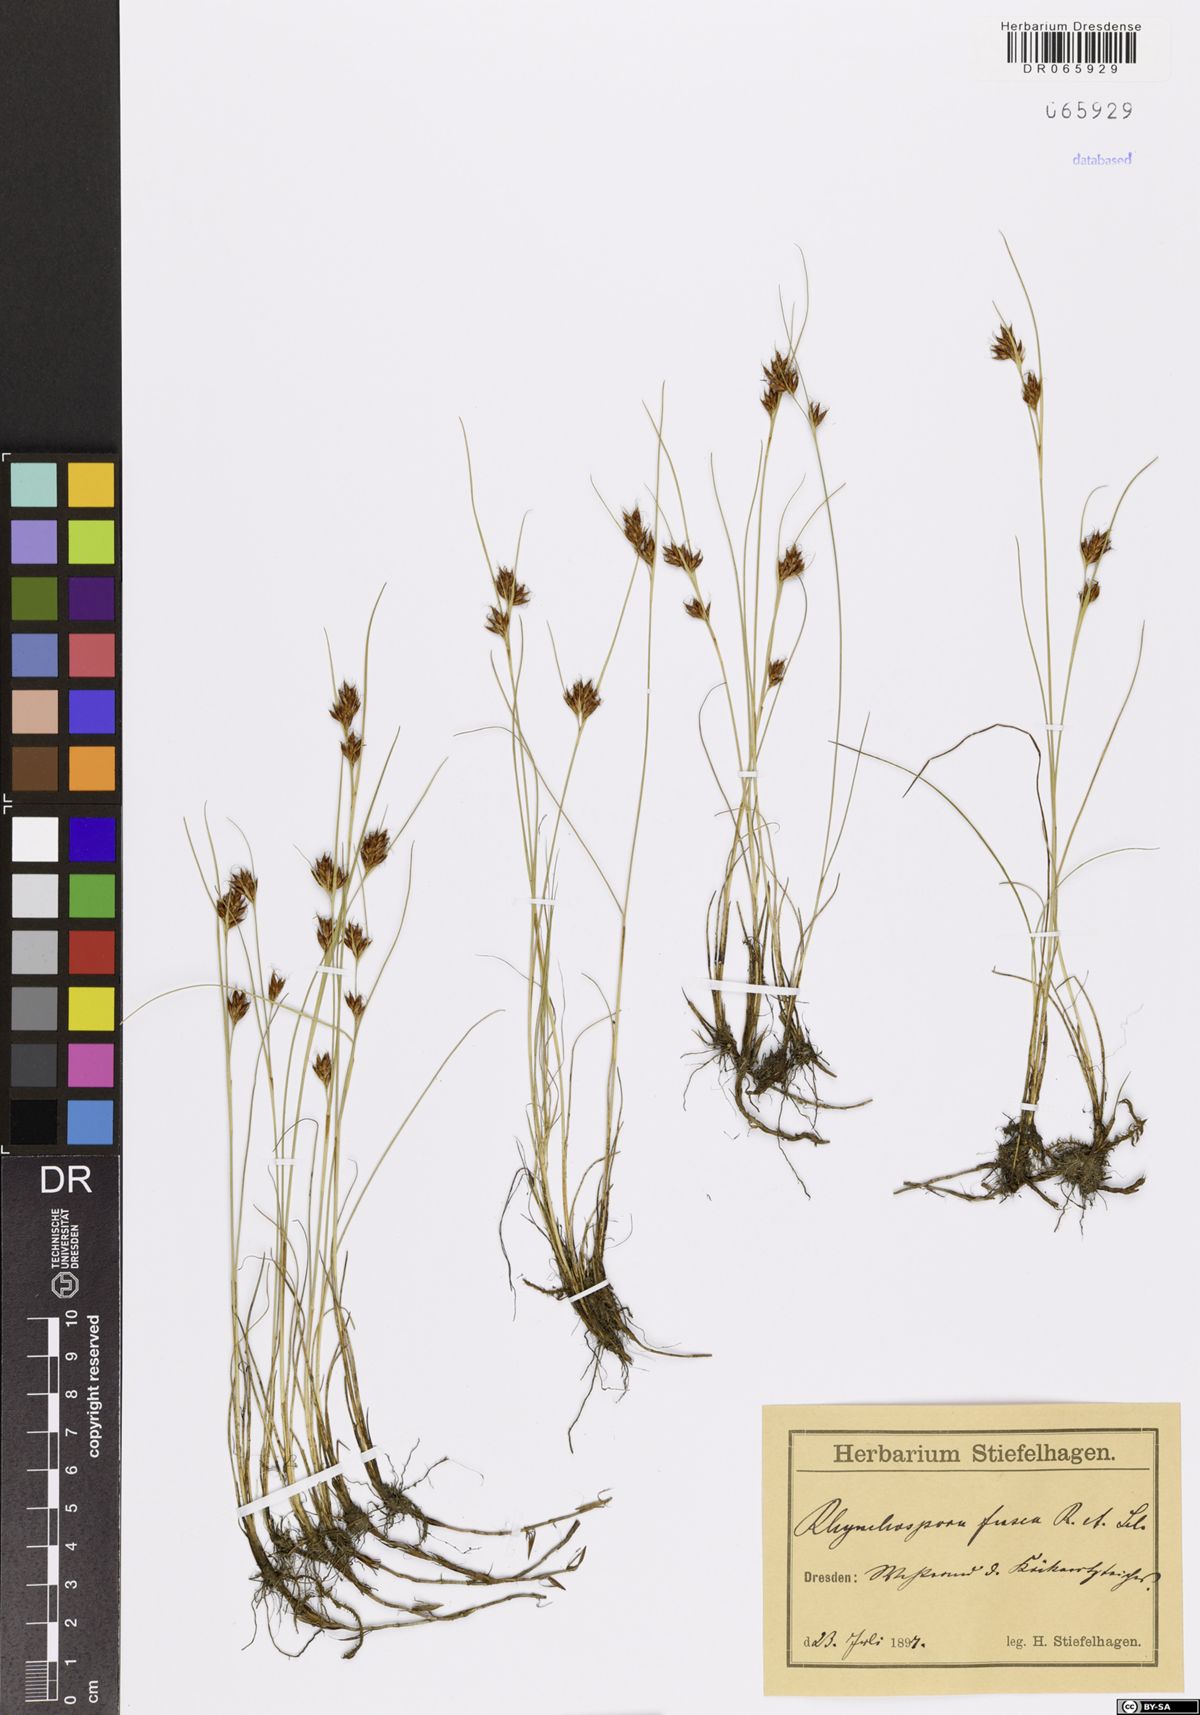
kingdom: Plantae
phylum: Tracheophyta
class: Liliopsida
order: Poales
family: Cyperaceae
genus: Rhynchospora
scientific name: Rhynchospora fusca
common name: Brown beak-sedge
